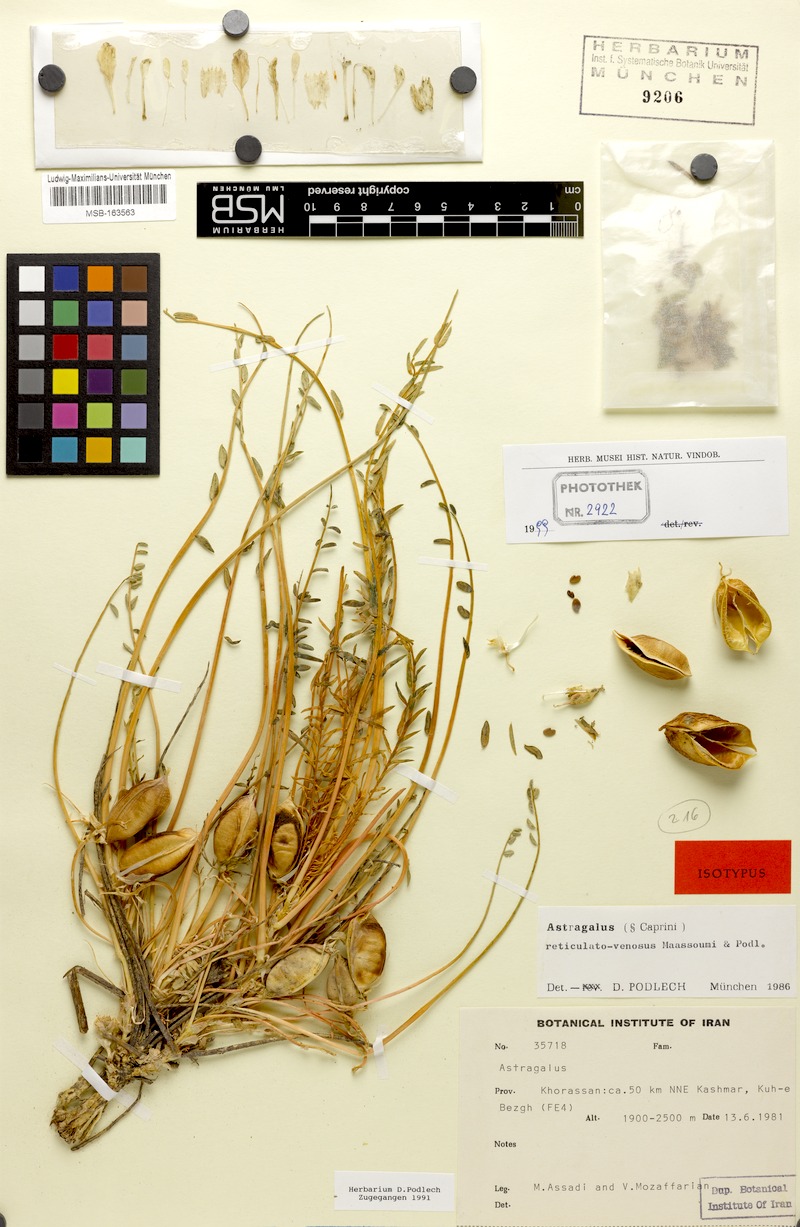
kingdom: Plantae
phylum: Tracheophyta
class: Magnoliopsida
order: Fabales
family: Fabaceae
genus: Astragalus
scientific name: Astragalus reticulatovenosus
